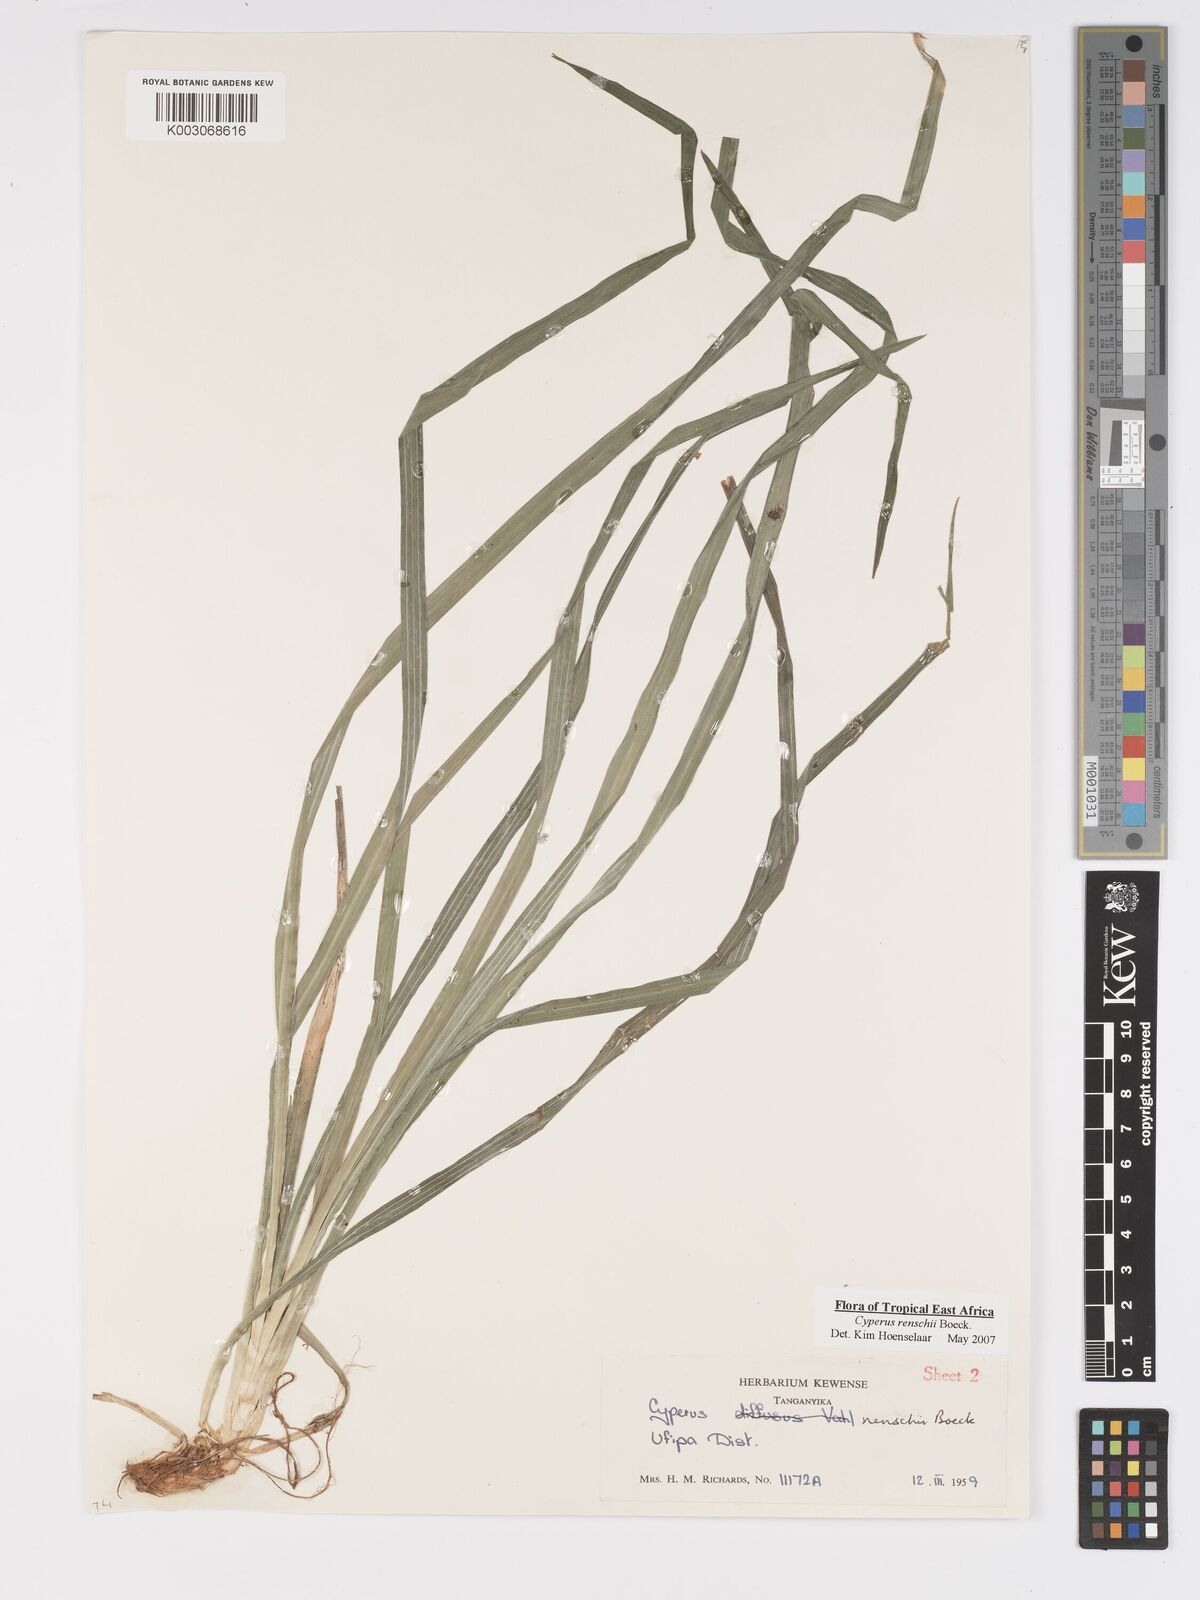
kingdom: Plantae
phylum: Tracheophyta
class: Liliopsida
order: Poales
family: Cyperaceae
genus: Cyperus
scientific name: Cyperus renschii
